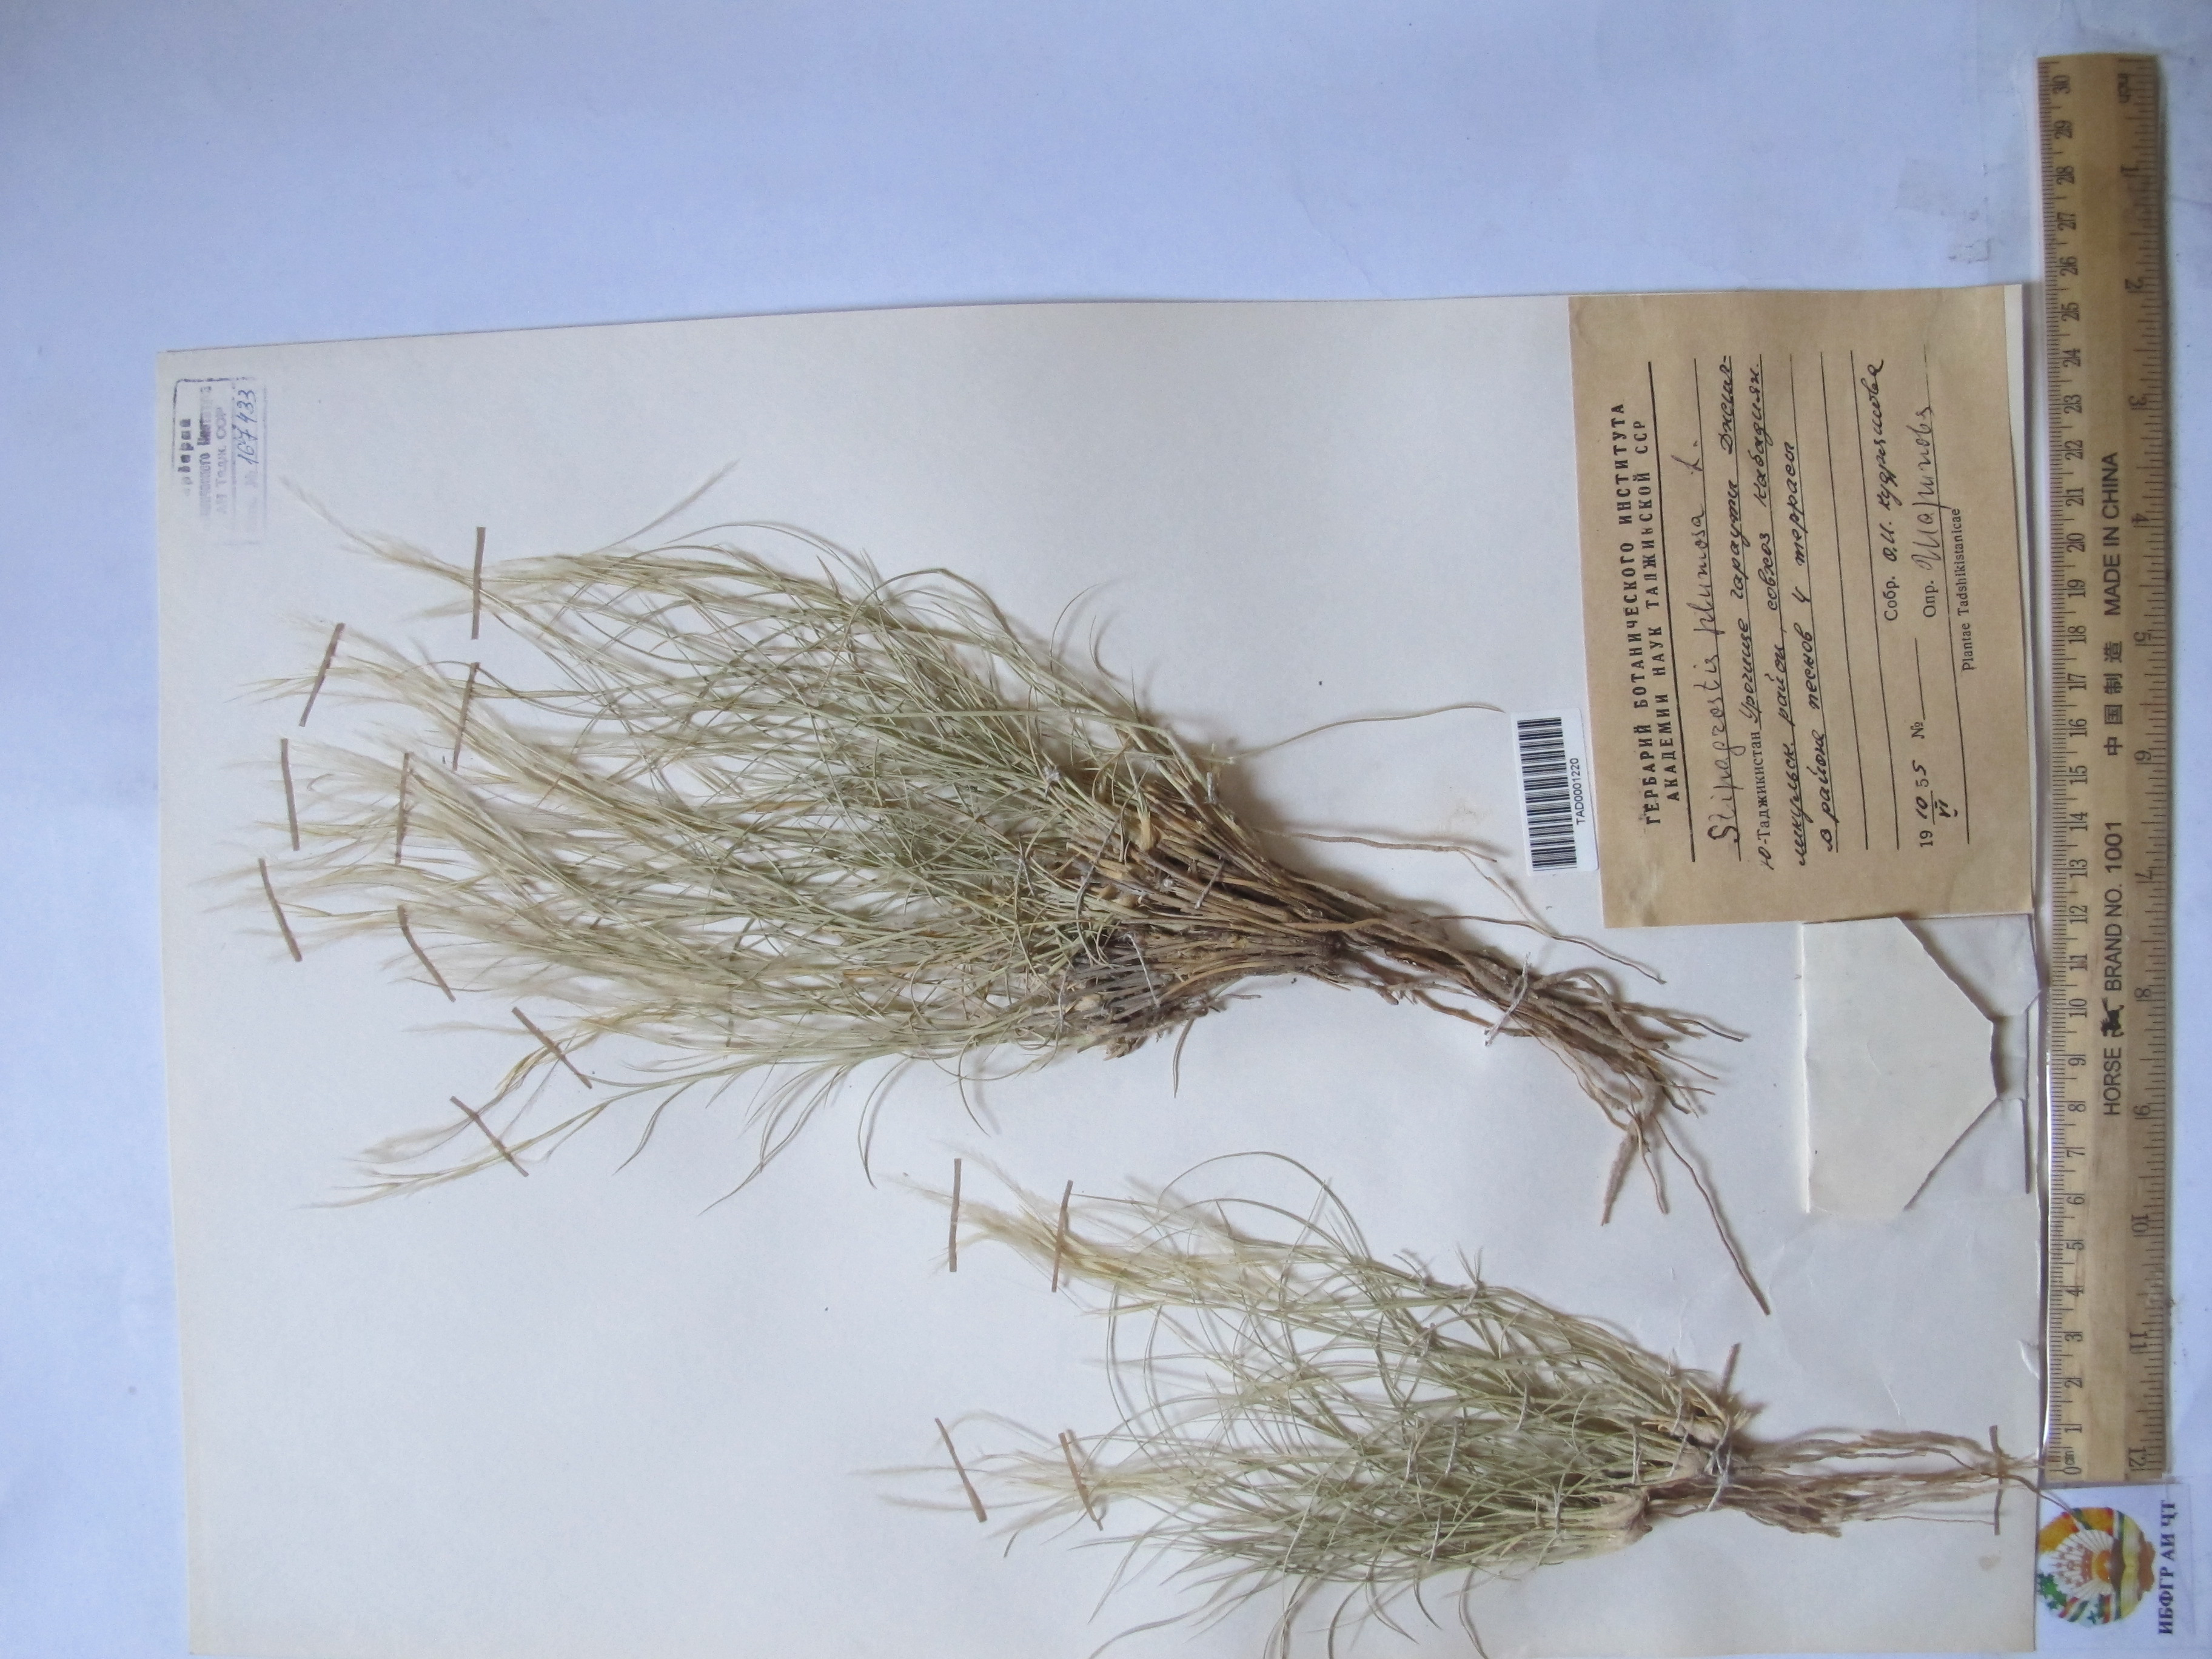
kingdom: Plantae
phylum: Tracheophyta
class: Liliopsida
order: Poales
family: Poaceae
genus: Stipagrostis
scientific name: Stipagrostis plumosa
